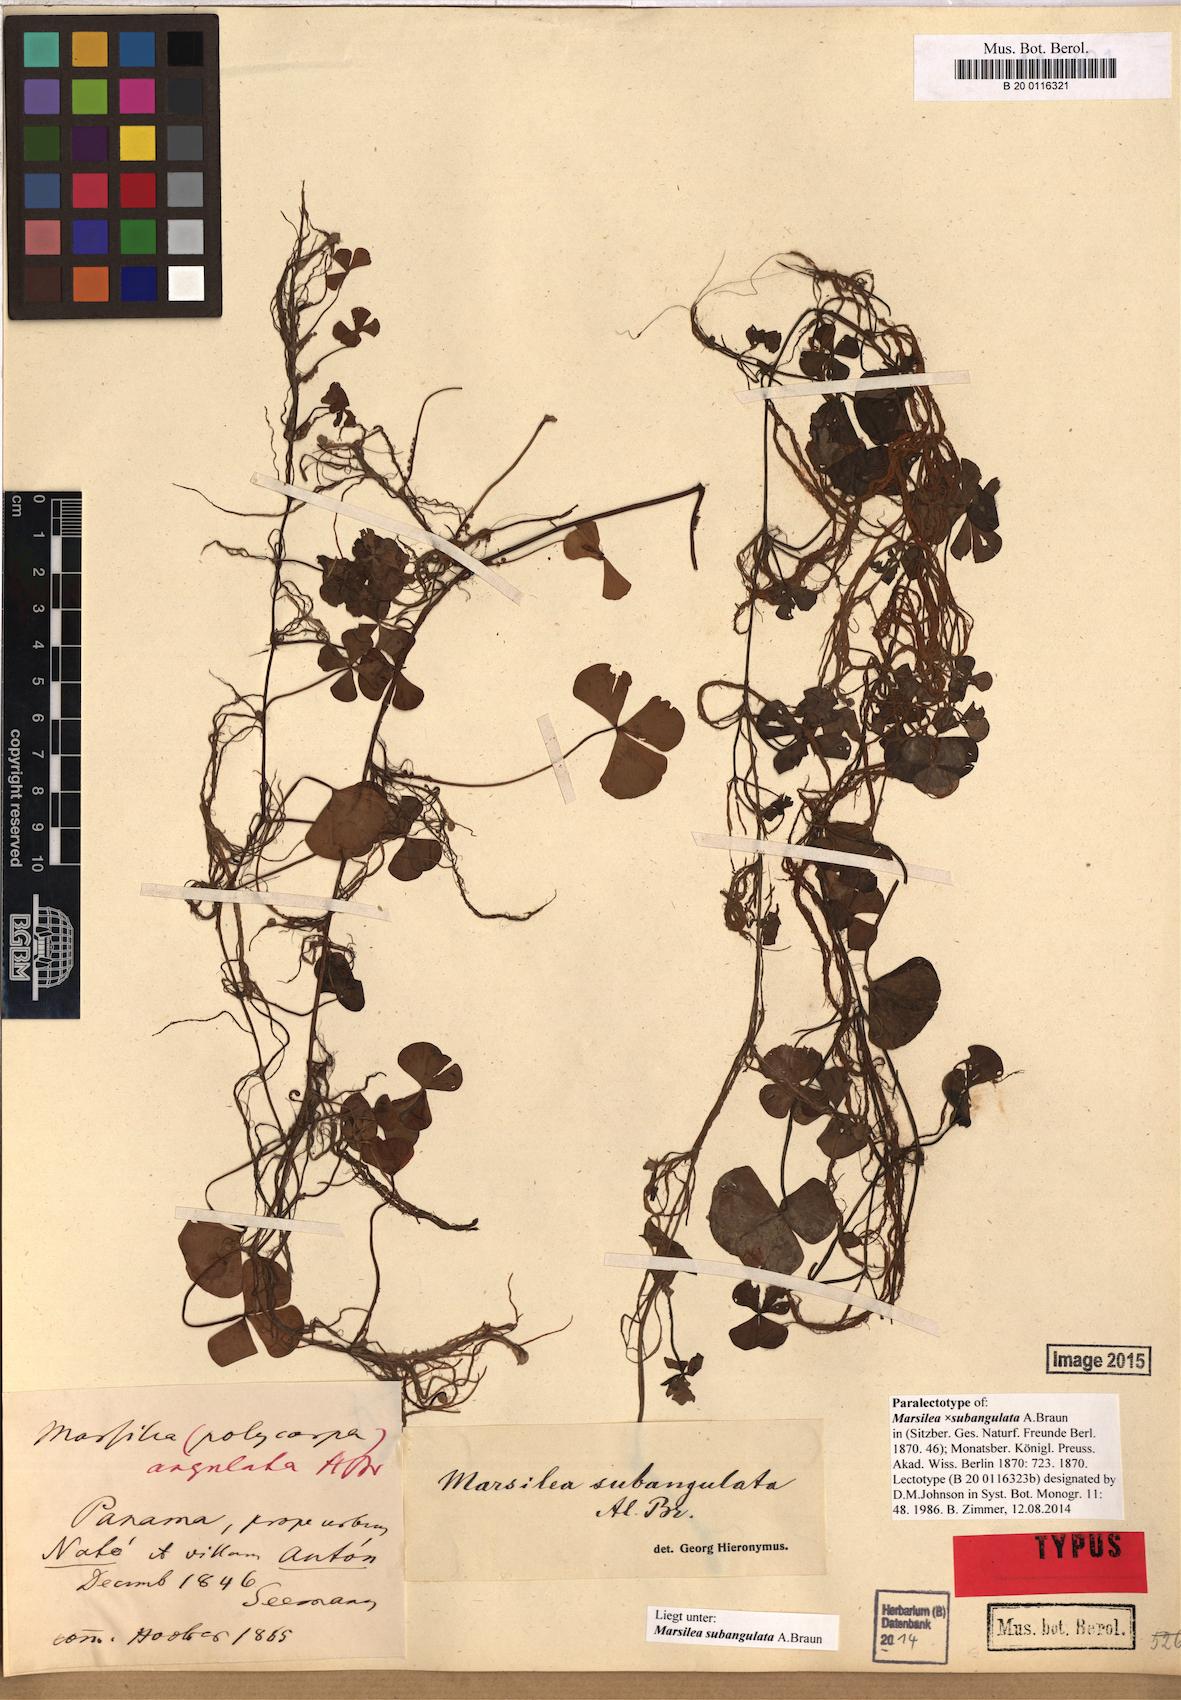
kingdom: Plantae
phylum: Tracheophyta
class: Polypodiopsida
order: Salviniales
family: Marsileaceae
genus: Marsilea
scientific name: Marsilea subangulata
